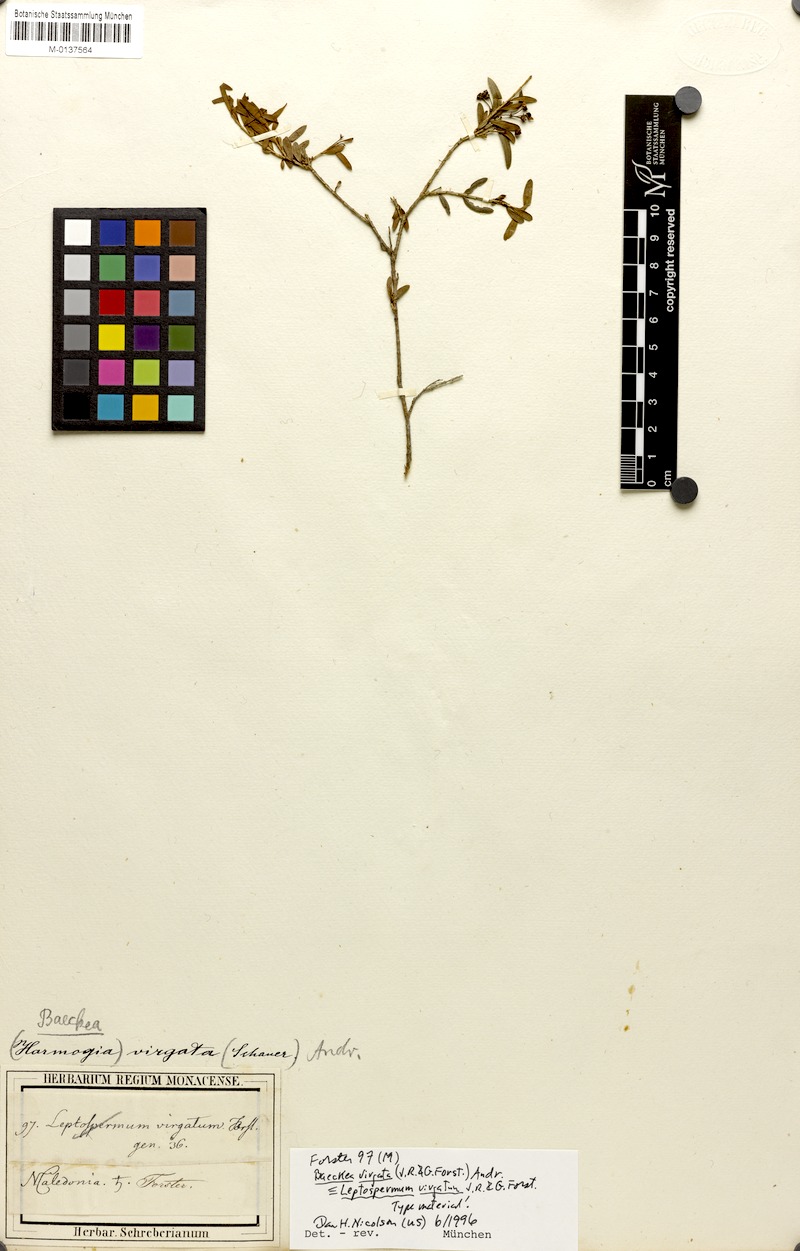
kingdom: Plantae
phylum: Tracheophyta
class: Magnoliopsida
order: Myrtales
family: Myrtaceae
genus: Sannantha
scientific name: Sannantha virgata
